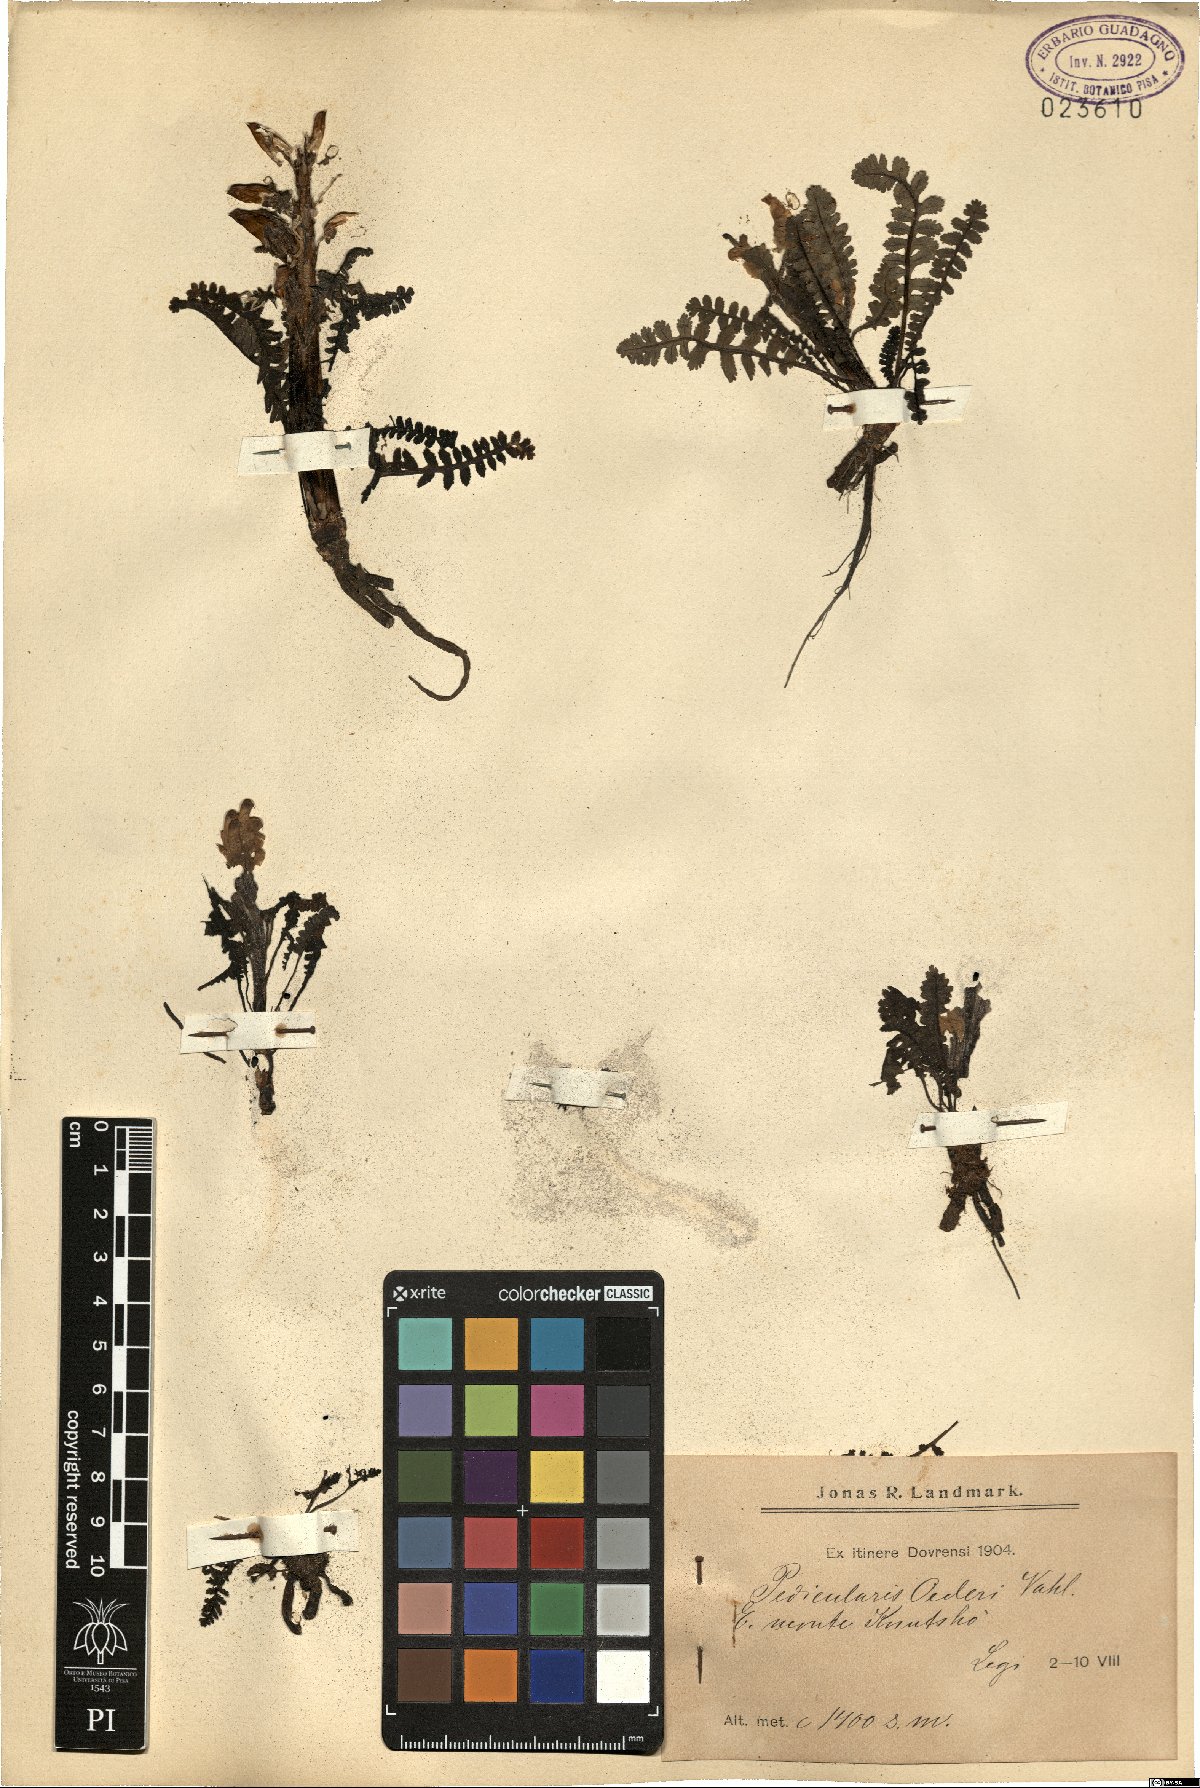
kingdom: Plantae
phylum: Tracheophyta
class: Magnoliopsida
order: Lamiales
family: Orobanchaceae
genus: Pedicularis
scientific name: Pedicularis oederi
